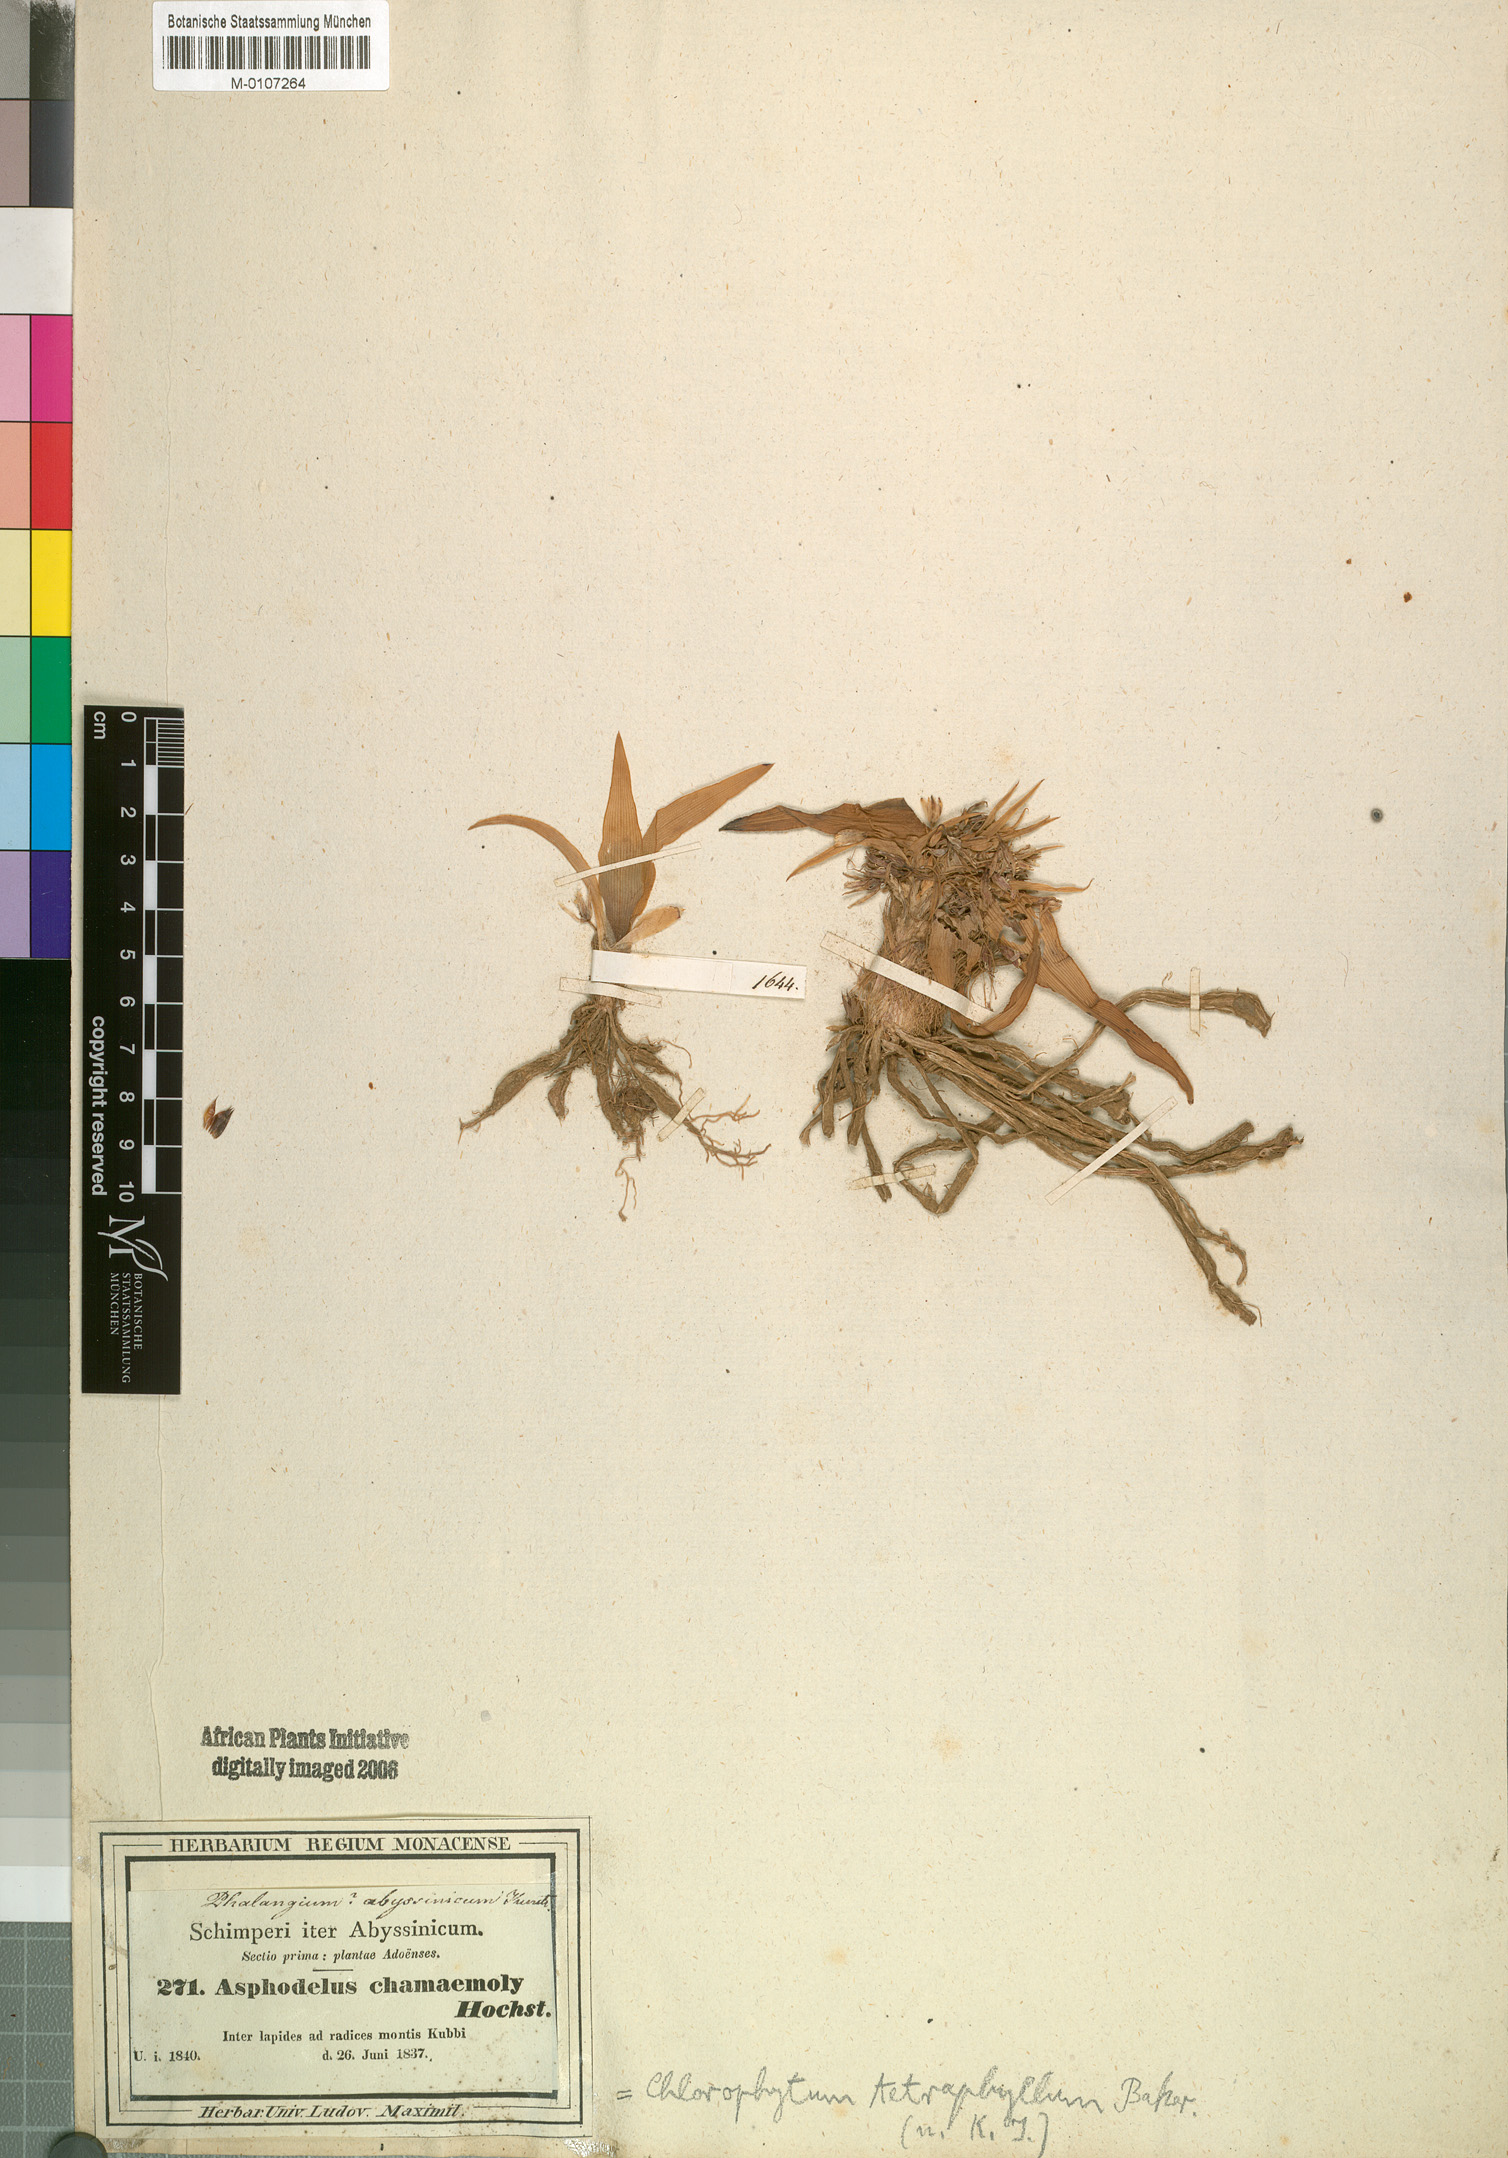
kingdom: Plantae
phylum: Tracheophyta
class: Liliopsida
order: Asparagales
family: Asparagaceae
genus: Chlorophytum
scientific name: Chlorophytum tetraphyllum
